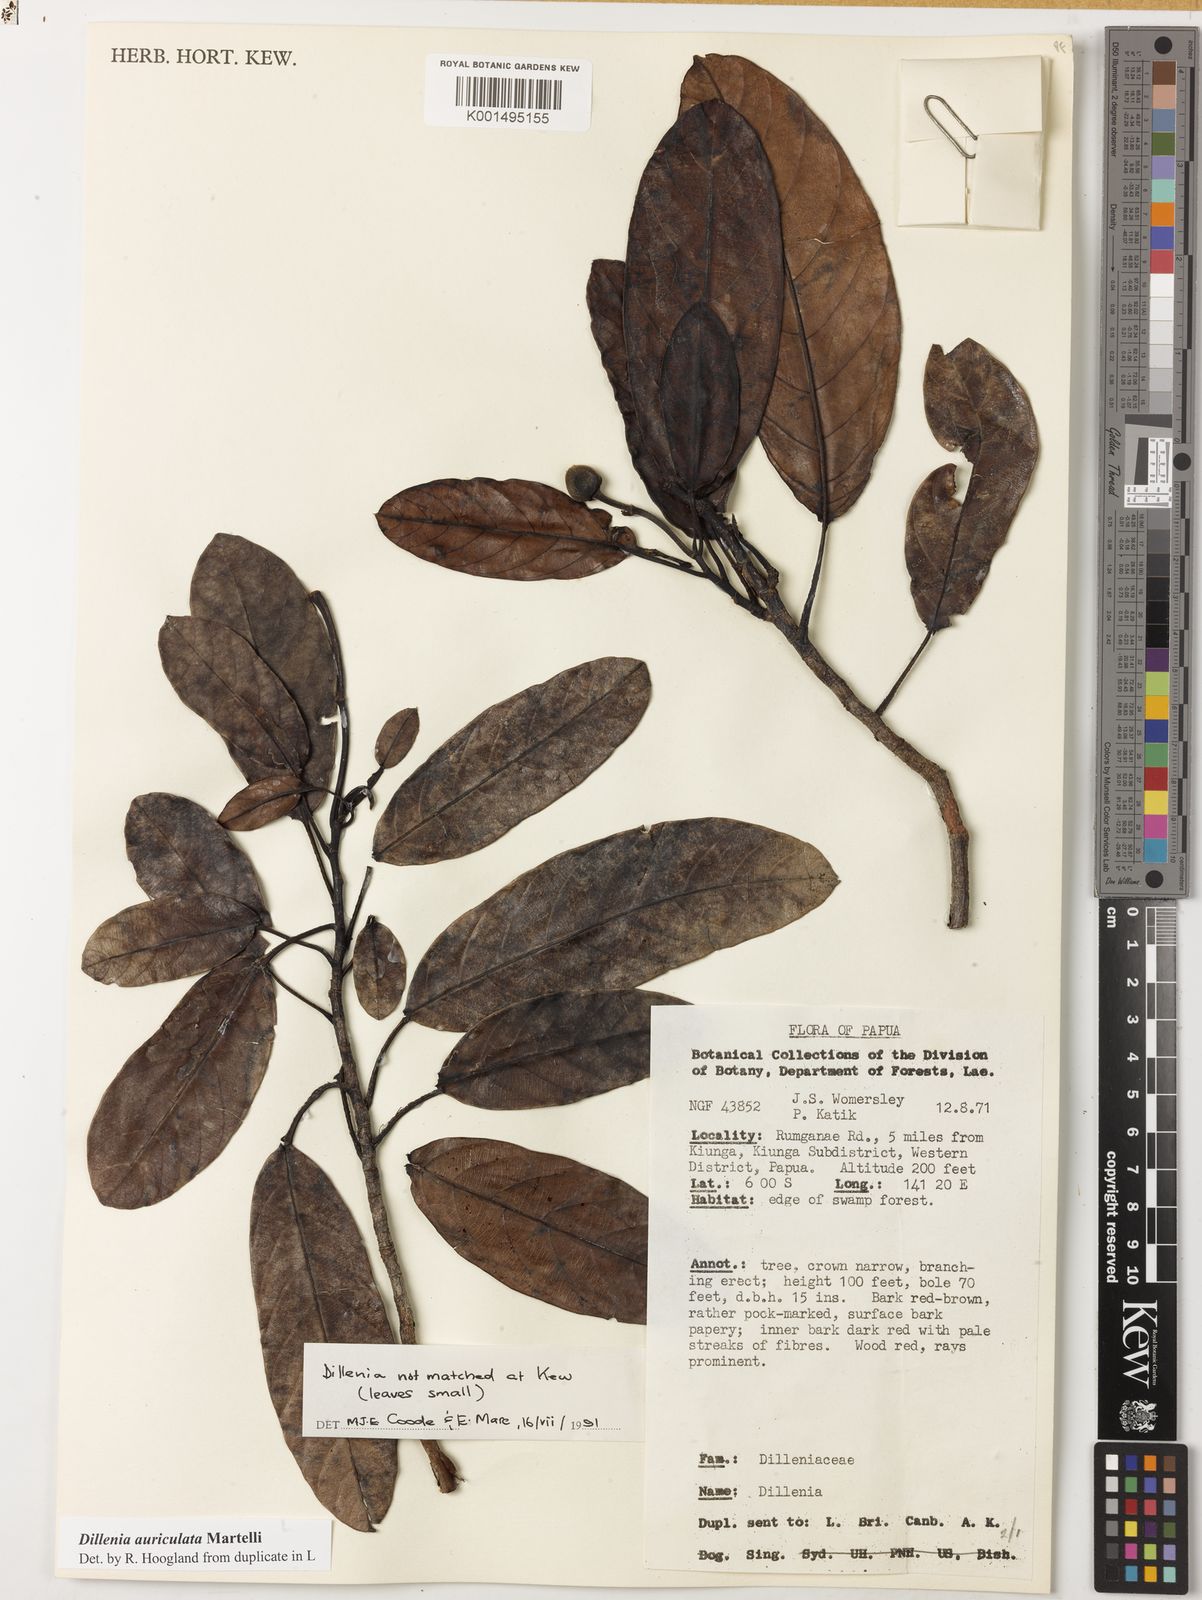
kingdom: Plantae
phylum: Tracheophyta
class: Magnoliopsida
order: Dilleniales
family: Dilleniaceae
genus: Dillenia
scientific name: Dillenia auriculata
